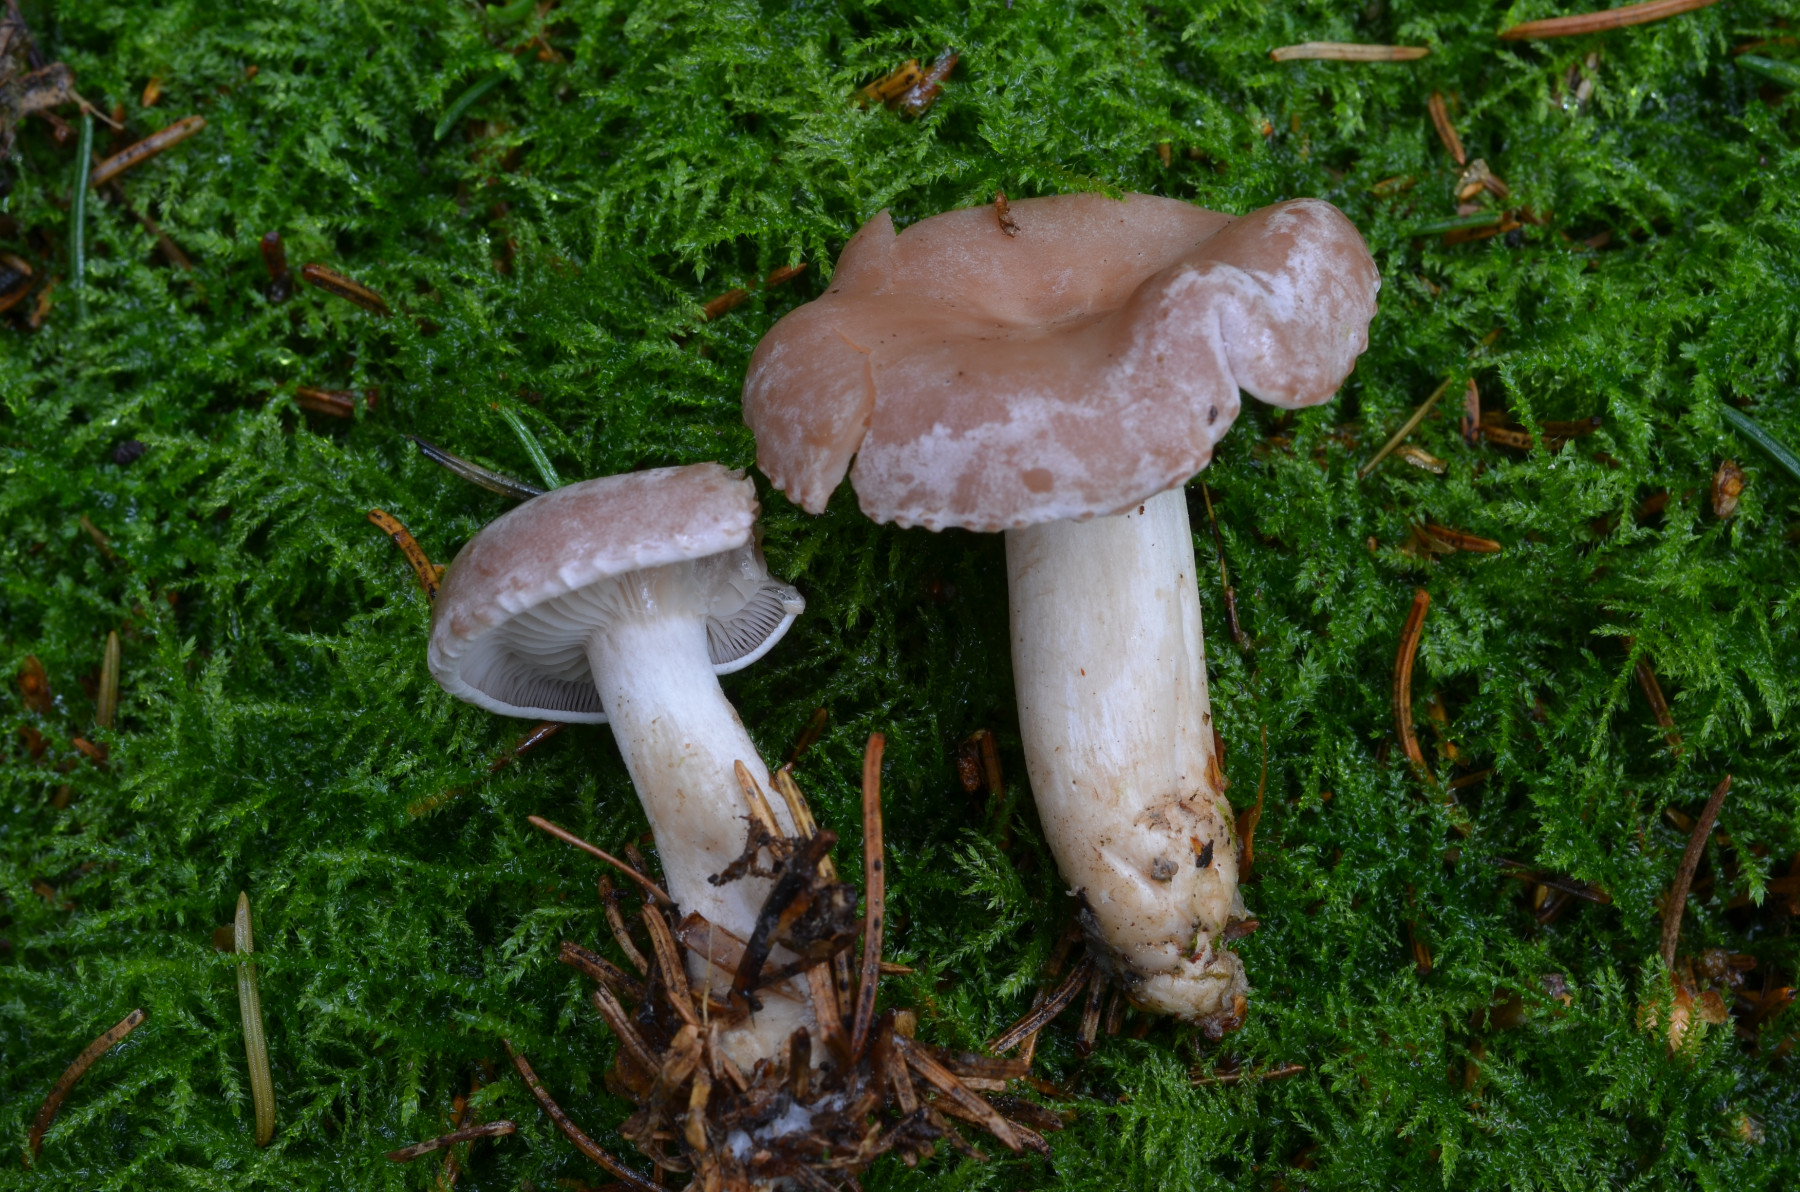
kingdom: Fungi
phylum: Basidiomycota
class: Agaricomycetes
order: Agaricales
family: Tricholomataceae
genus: Clitocybe
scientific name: Clitocybe diatreta
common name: kødfarvet tragthat
